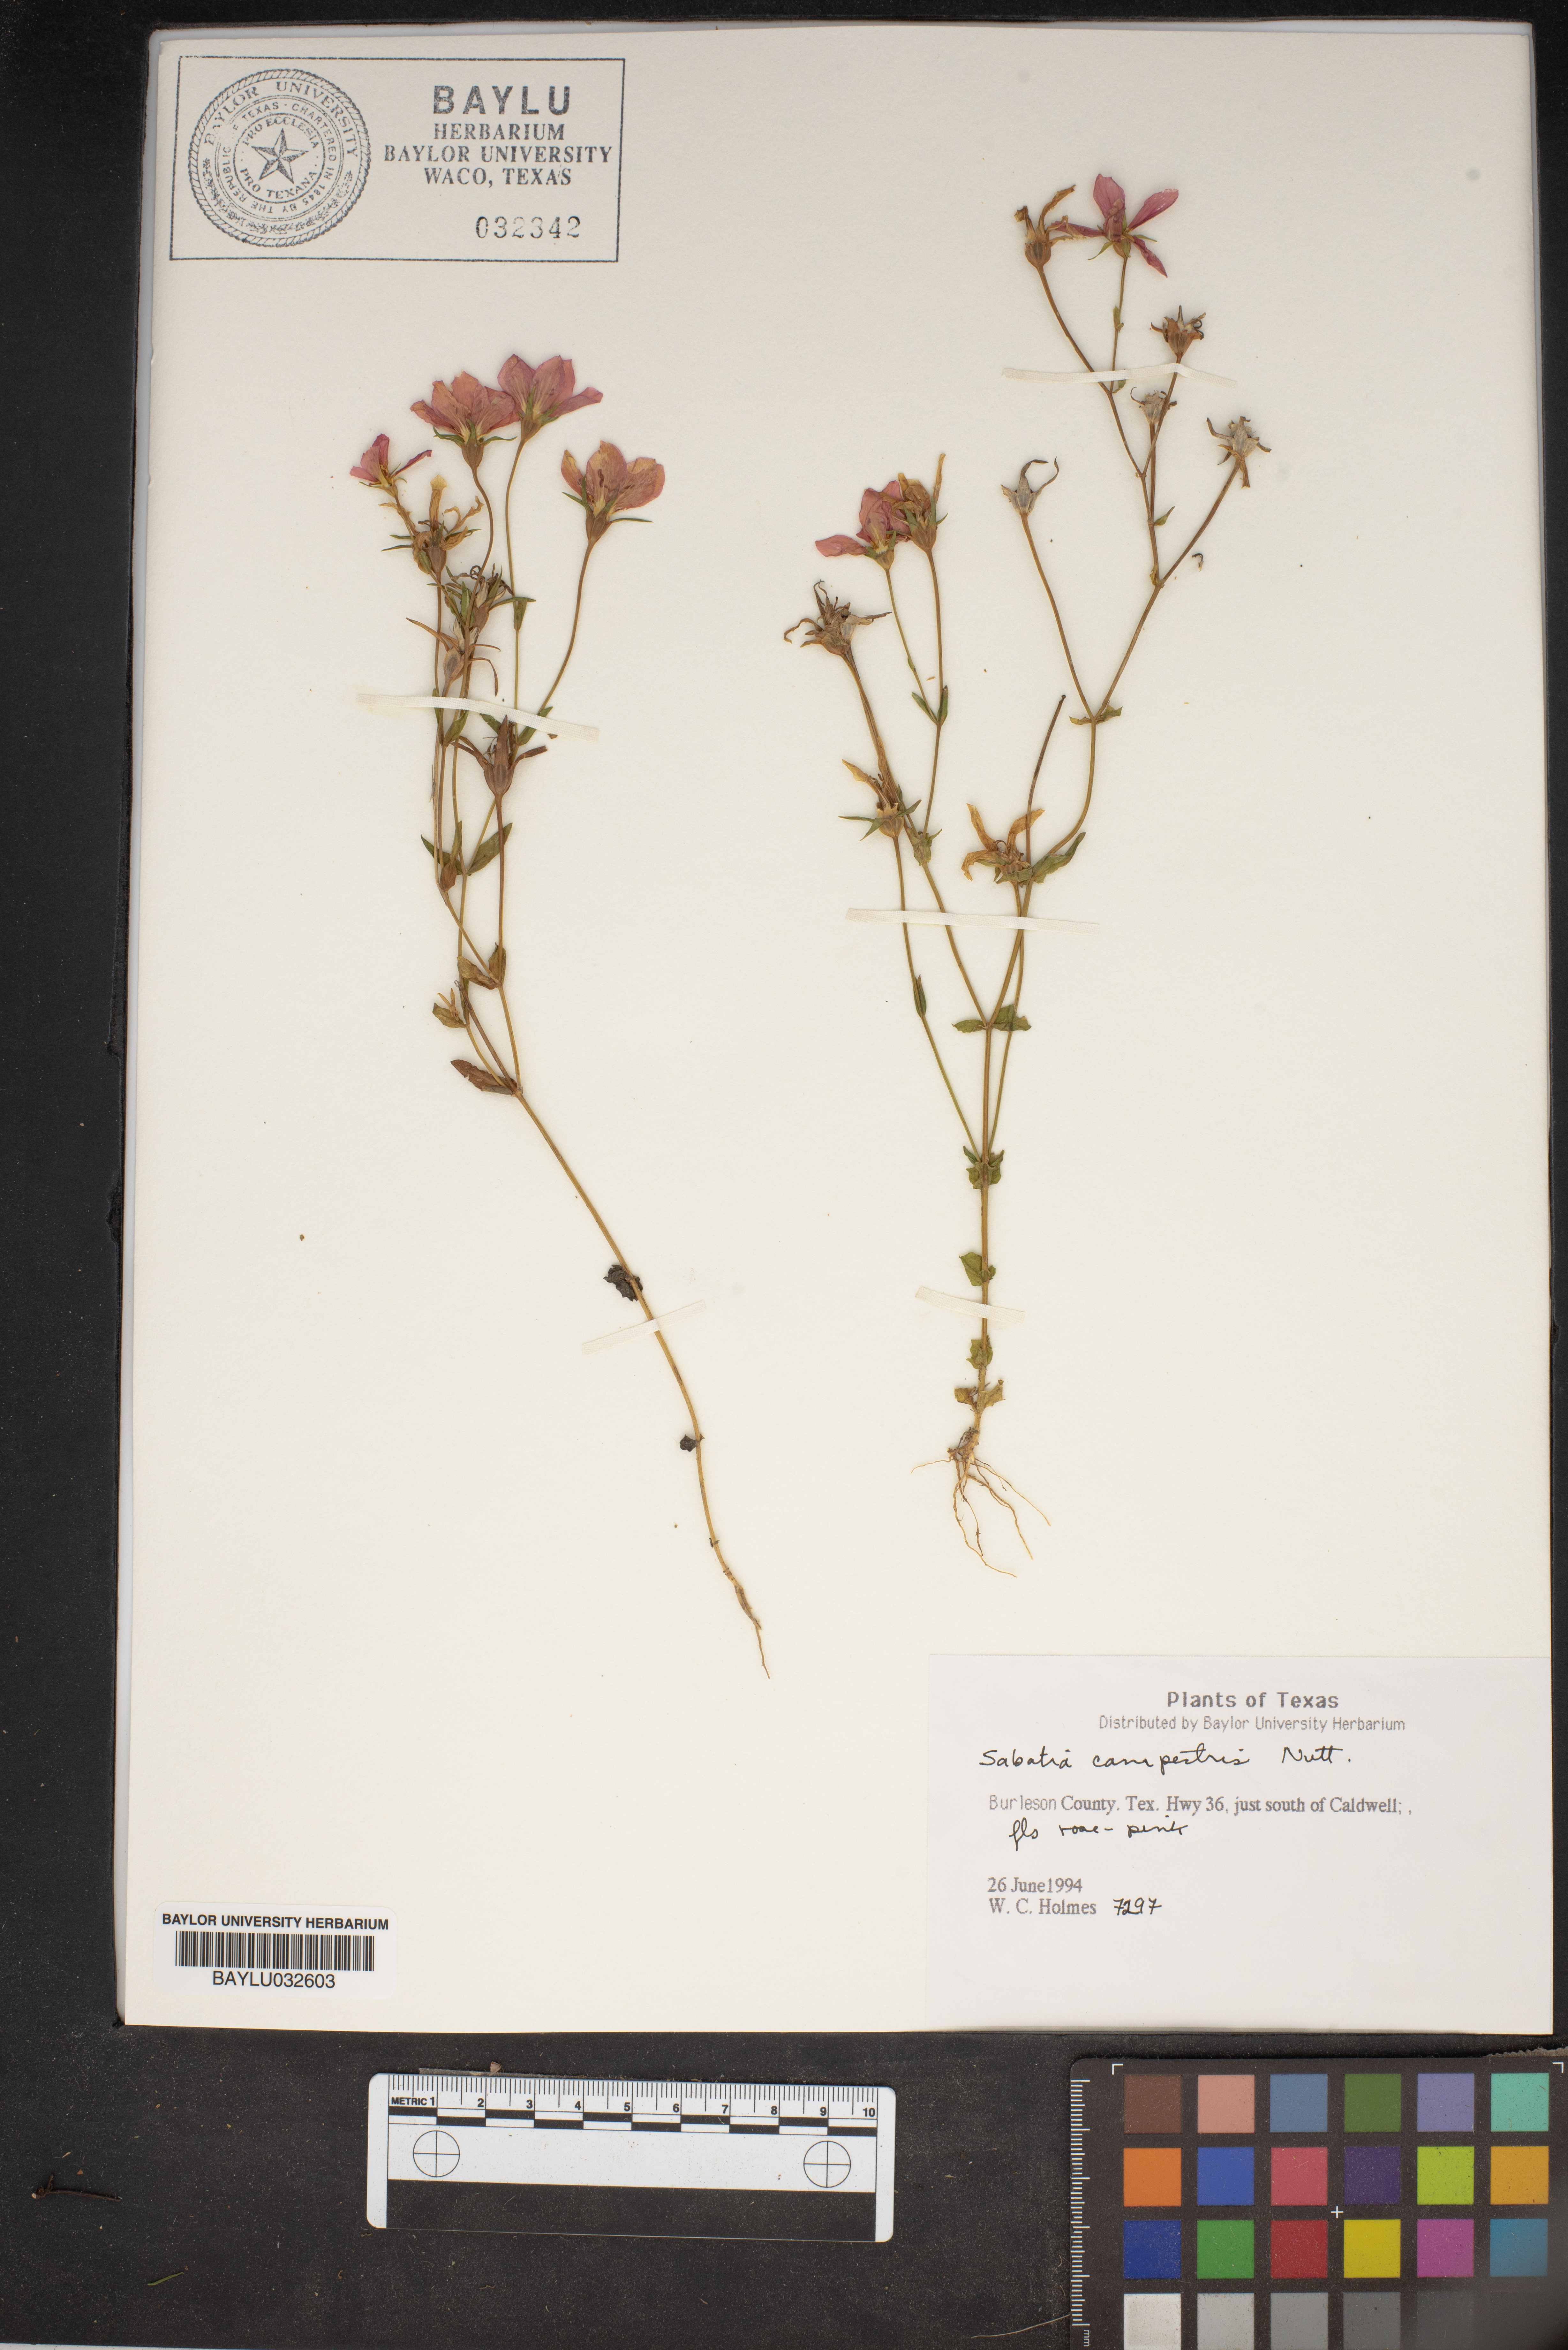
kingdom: Plantae
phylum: Tracheophyta
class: Magnoliopsida
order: Gentianales
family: Gentianaceae
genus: Sabatia
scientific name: Sabatia campestris
